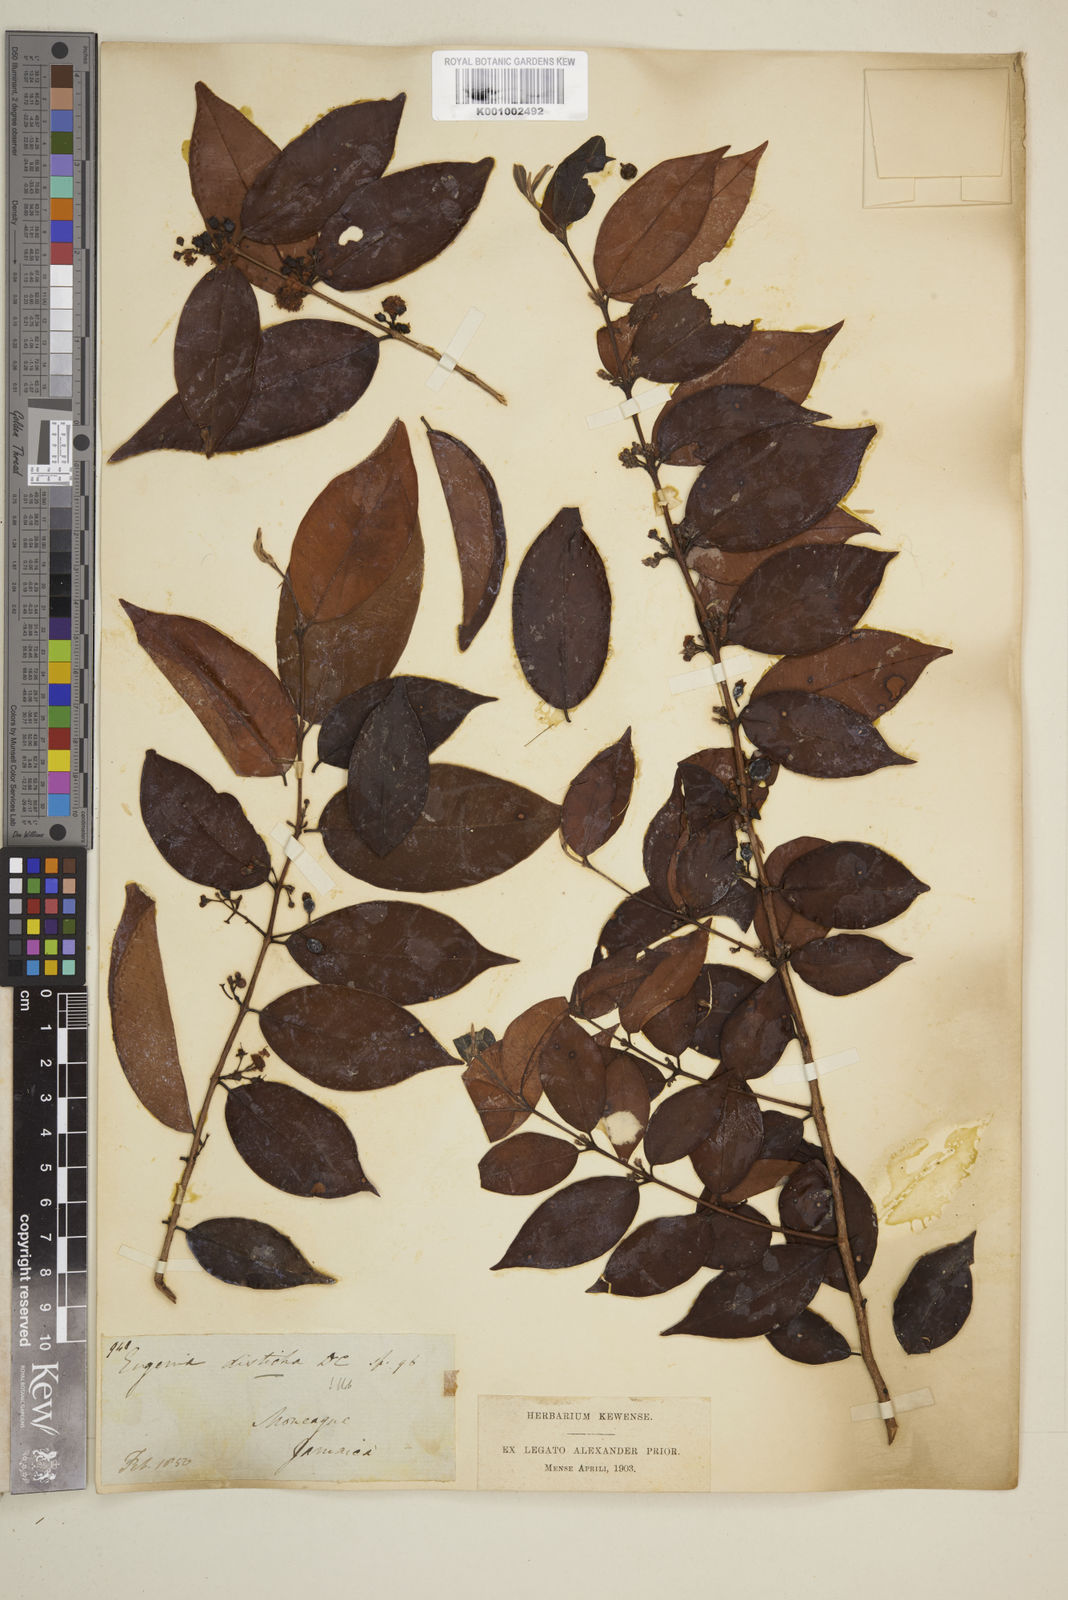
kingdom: Plantae
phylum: Tracheophyta
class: Magnoliopsida
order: Myrtales
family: Myrtaceae
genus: Eugenia
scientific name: Eugenia disticha
